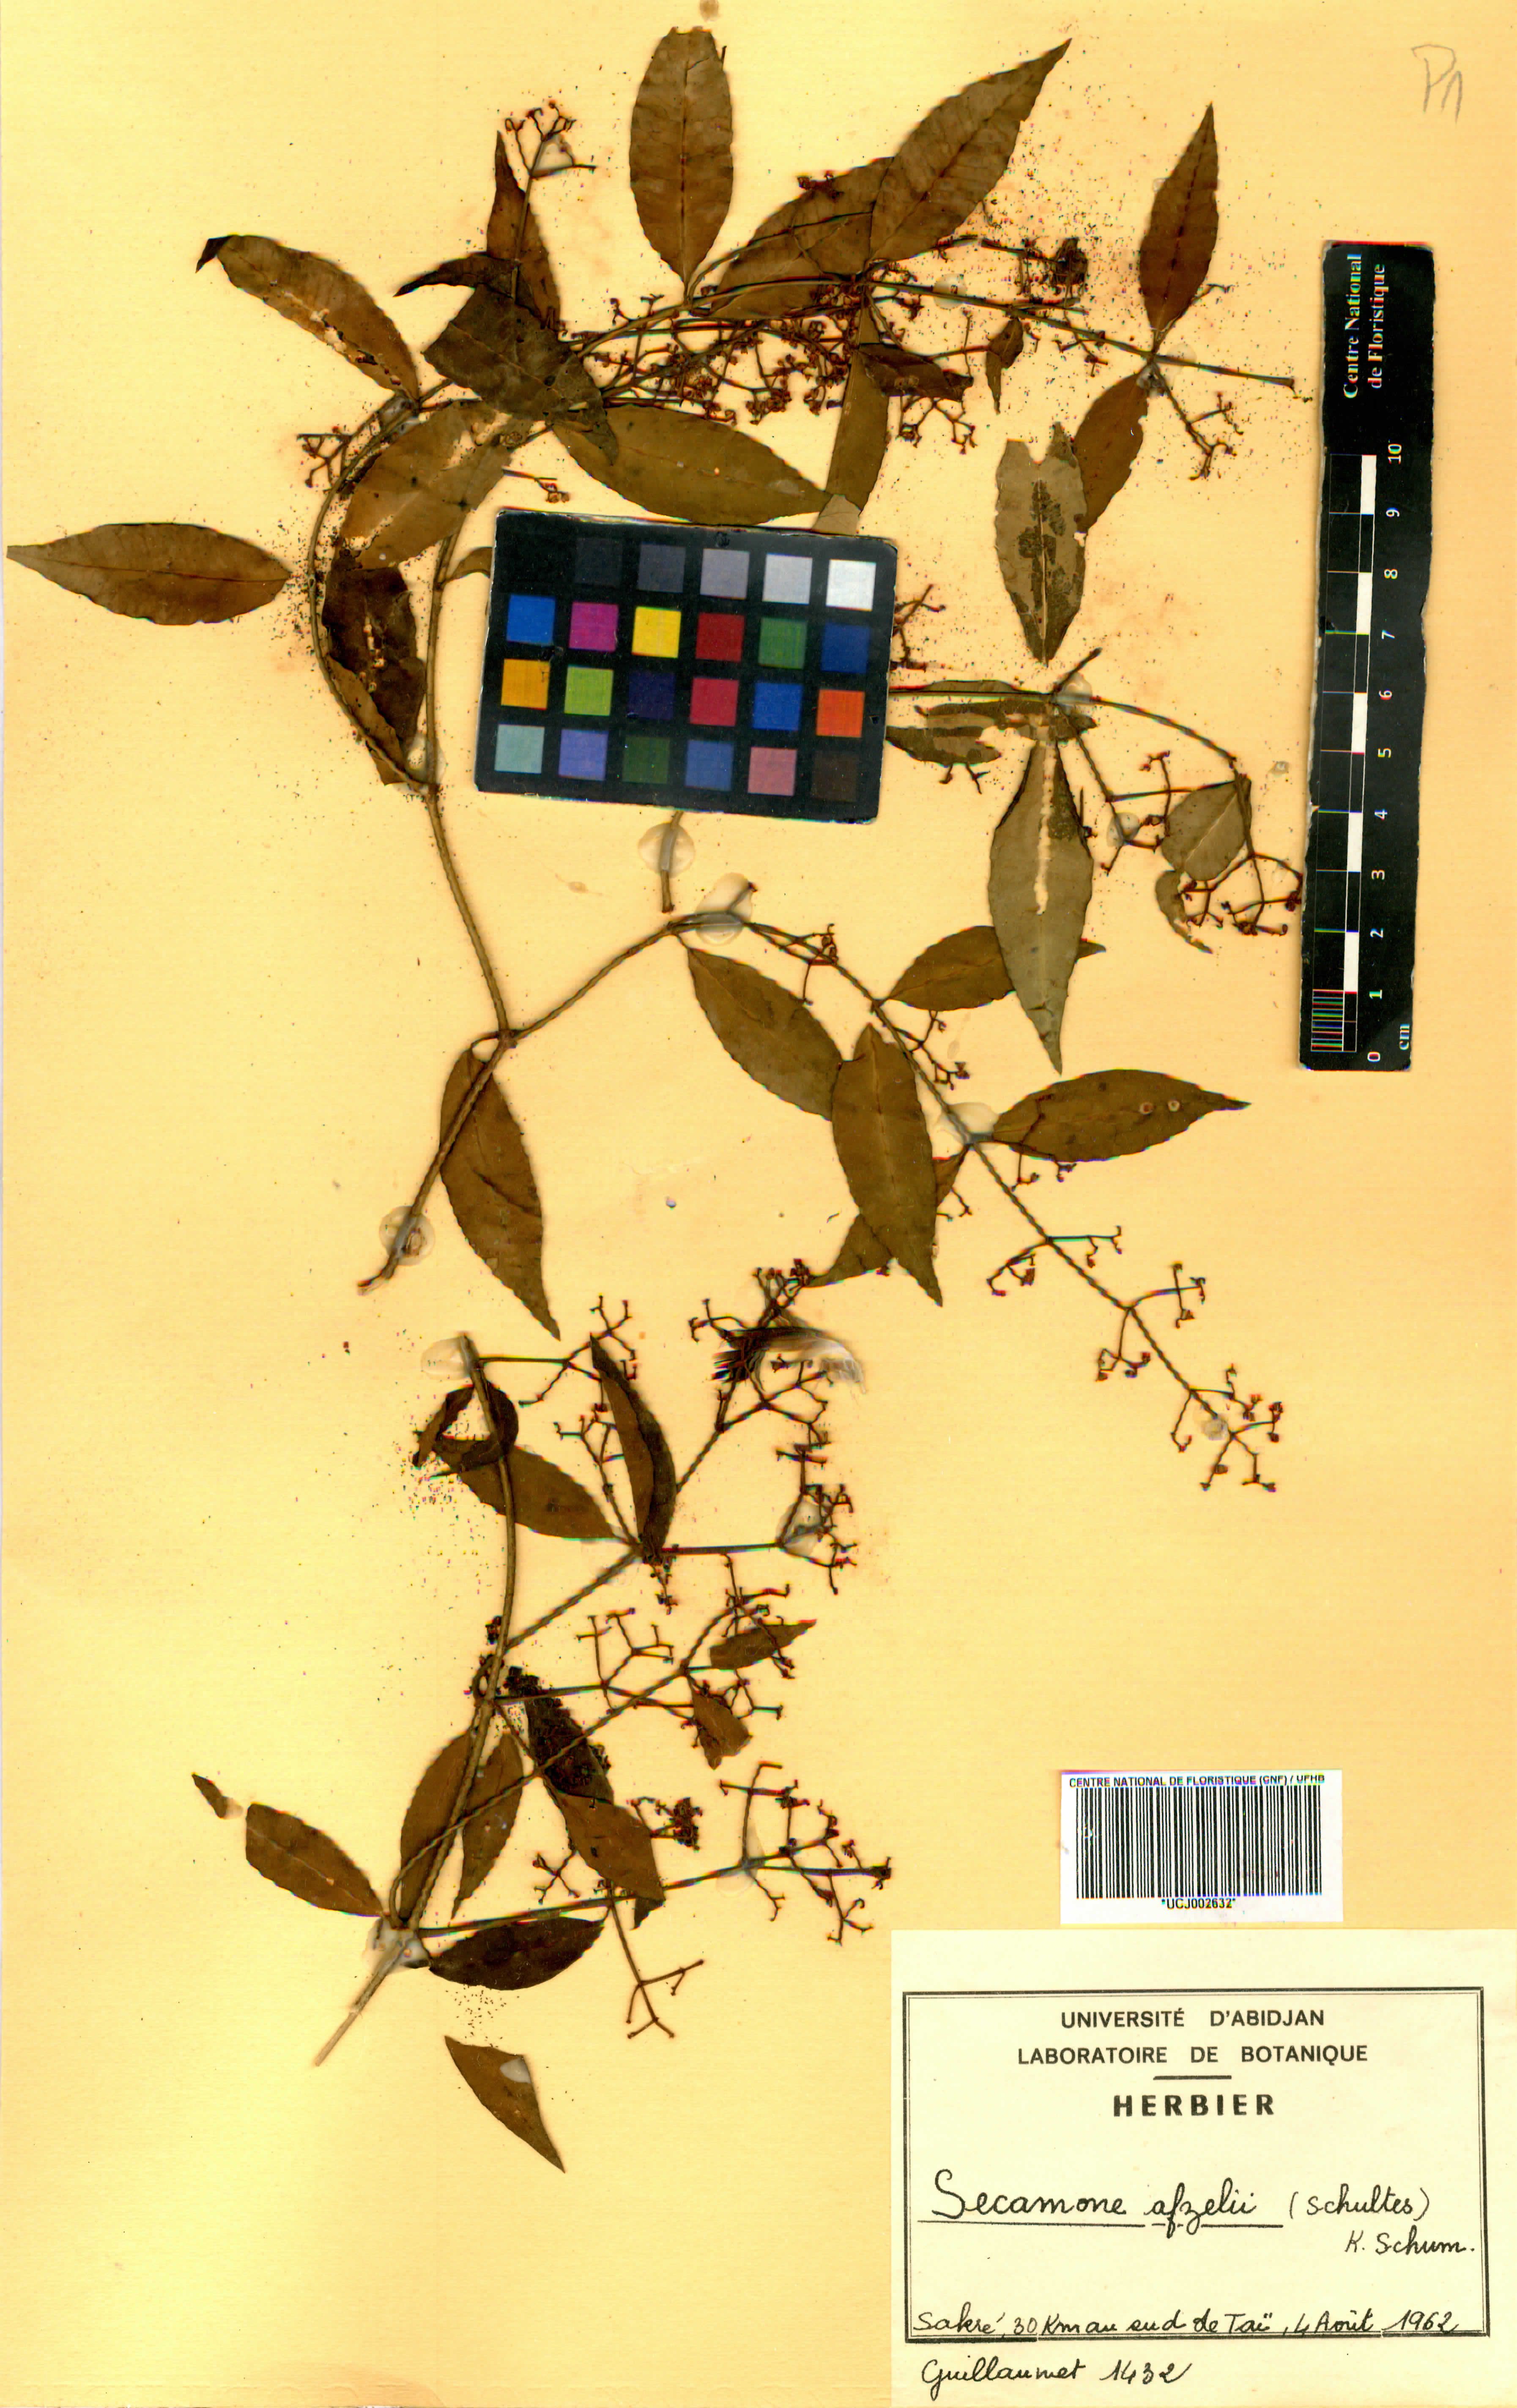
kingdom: Plantae
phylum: Tracheophyta
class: Magnoliopsida
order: Gentianales
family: Apocynaceae
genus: Secamone
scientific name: Secamone afzelii
